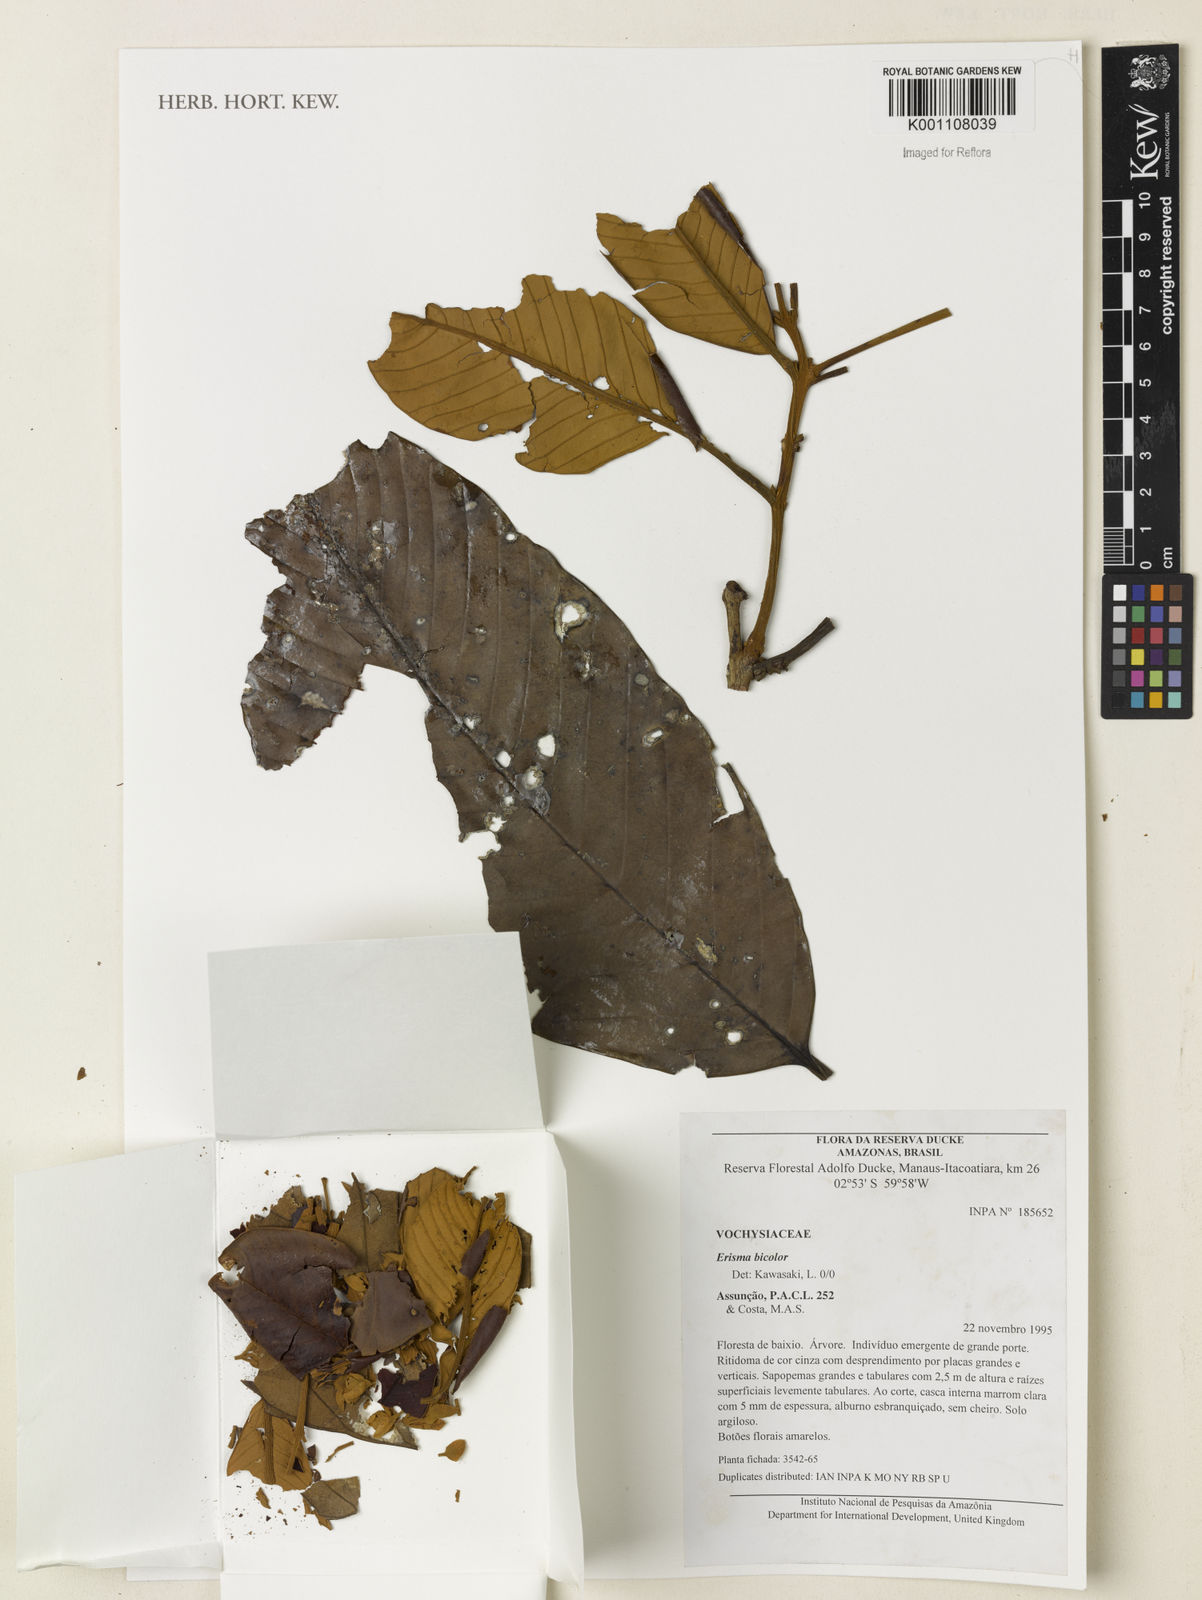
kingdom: Plantae
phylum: Tracheophyta
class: Magnoliopsida
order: Myrtales
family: Vochysiaceae
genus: Erisma
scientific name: Erisma bicolor
